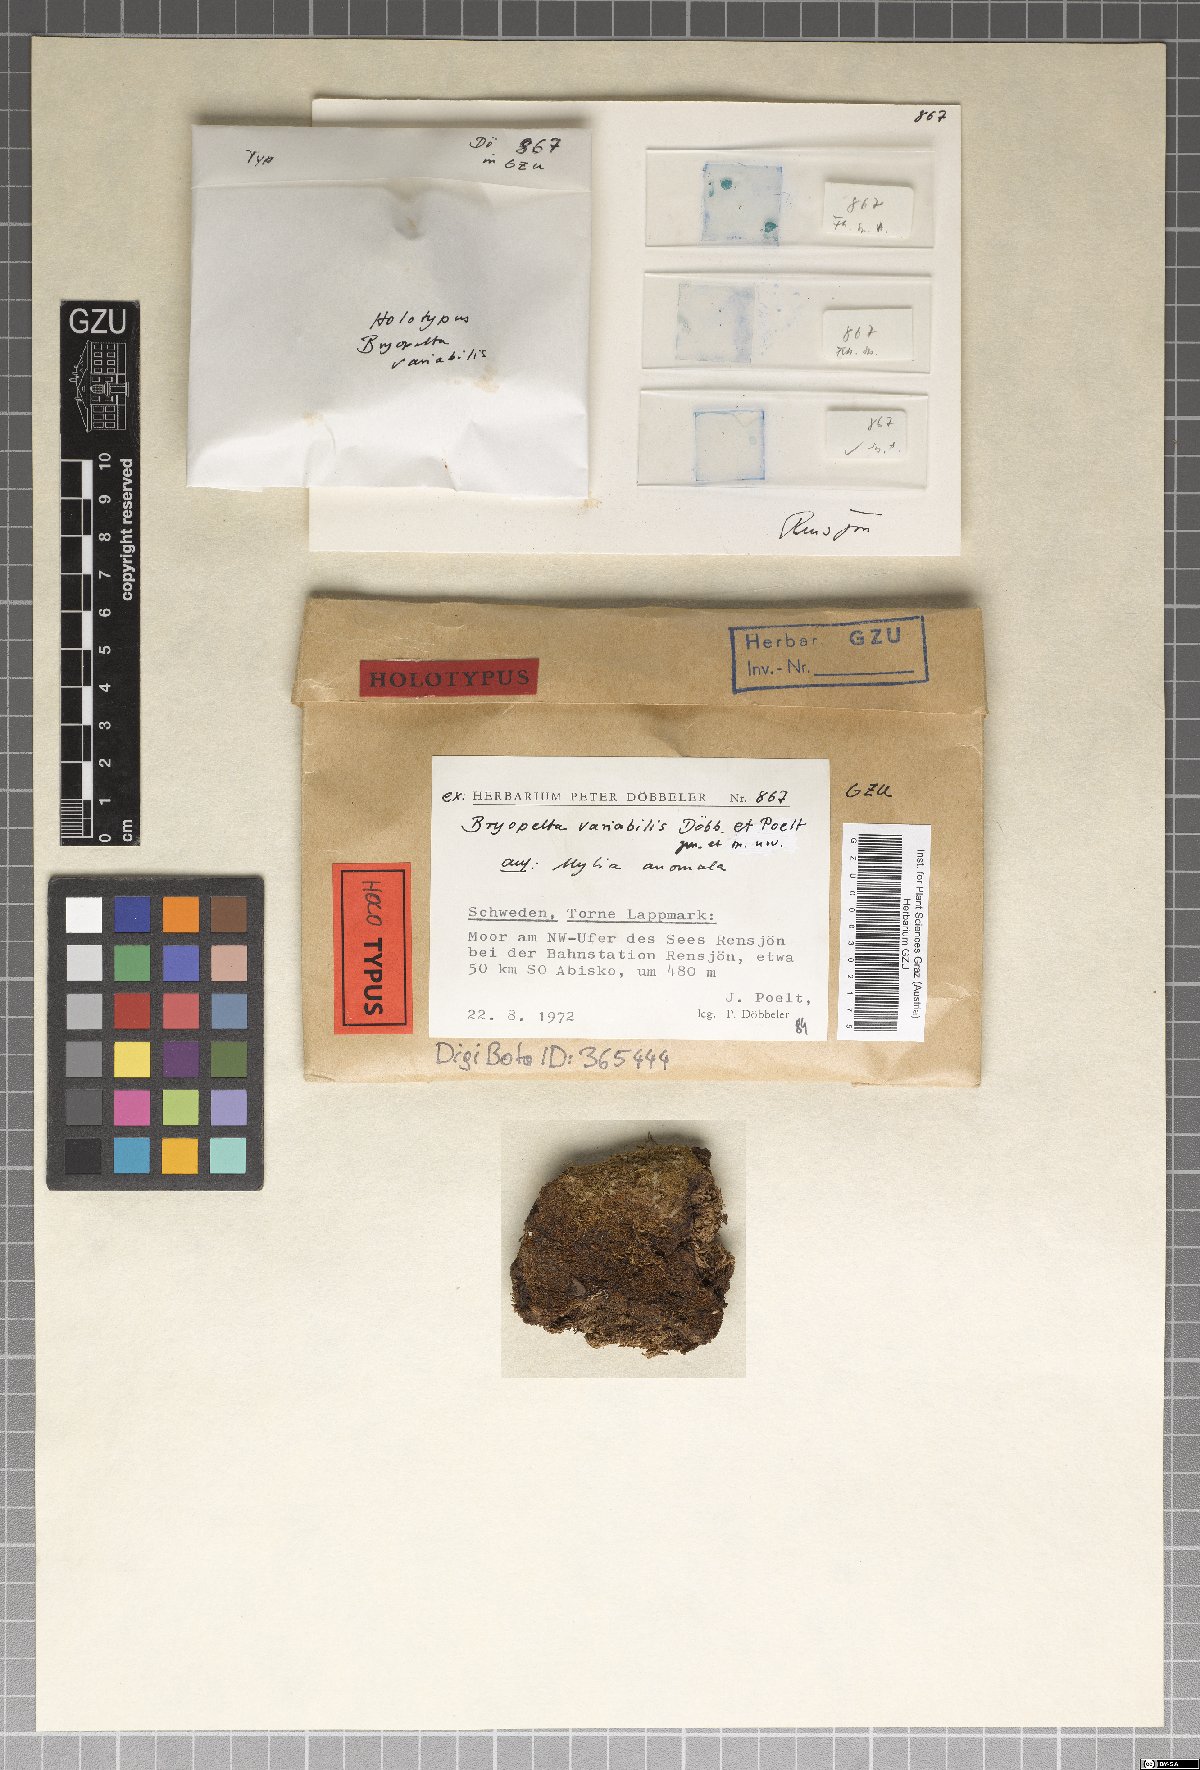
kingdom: Fungi
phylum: Ascomycota
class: Dothideomycetes
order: Dothideales
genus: Bryopelta
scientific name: Bryopelta variabilis
